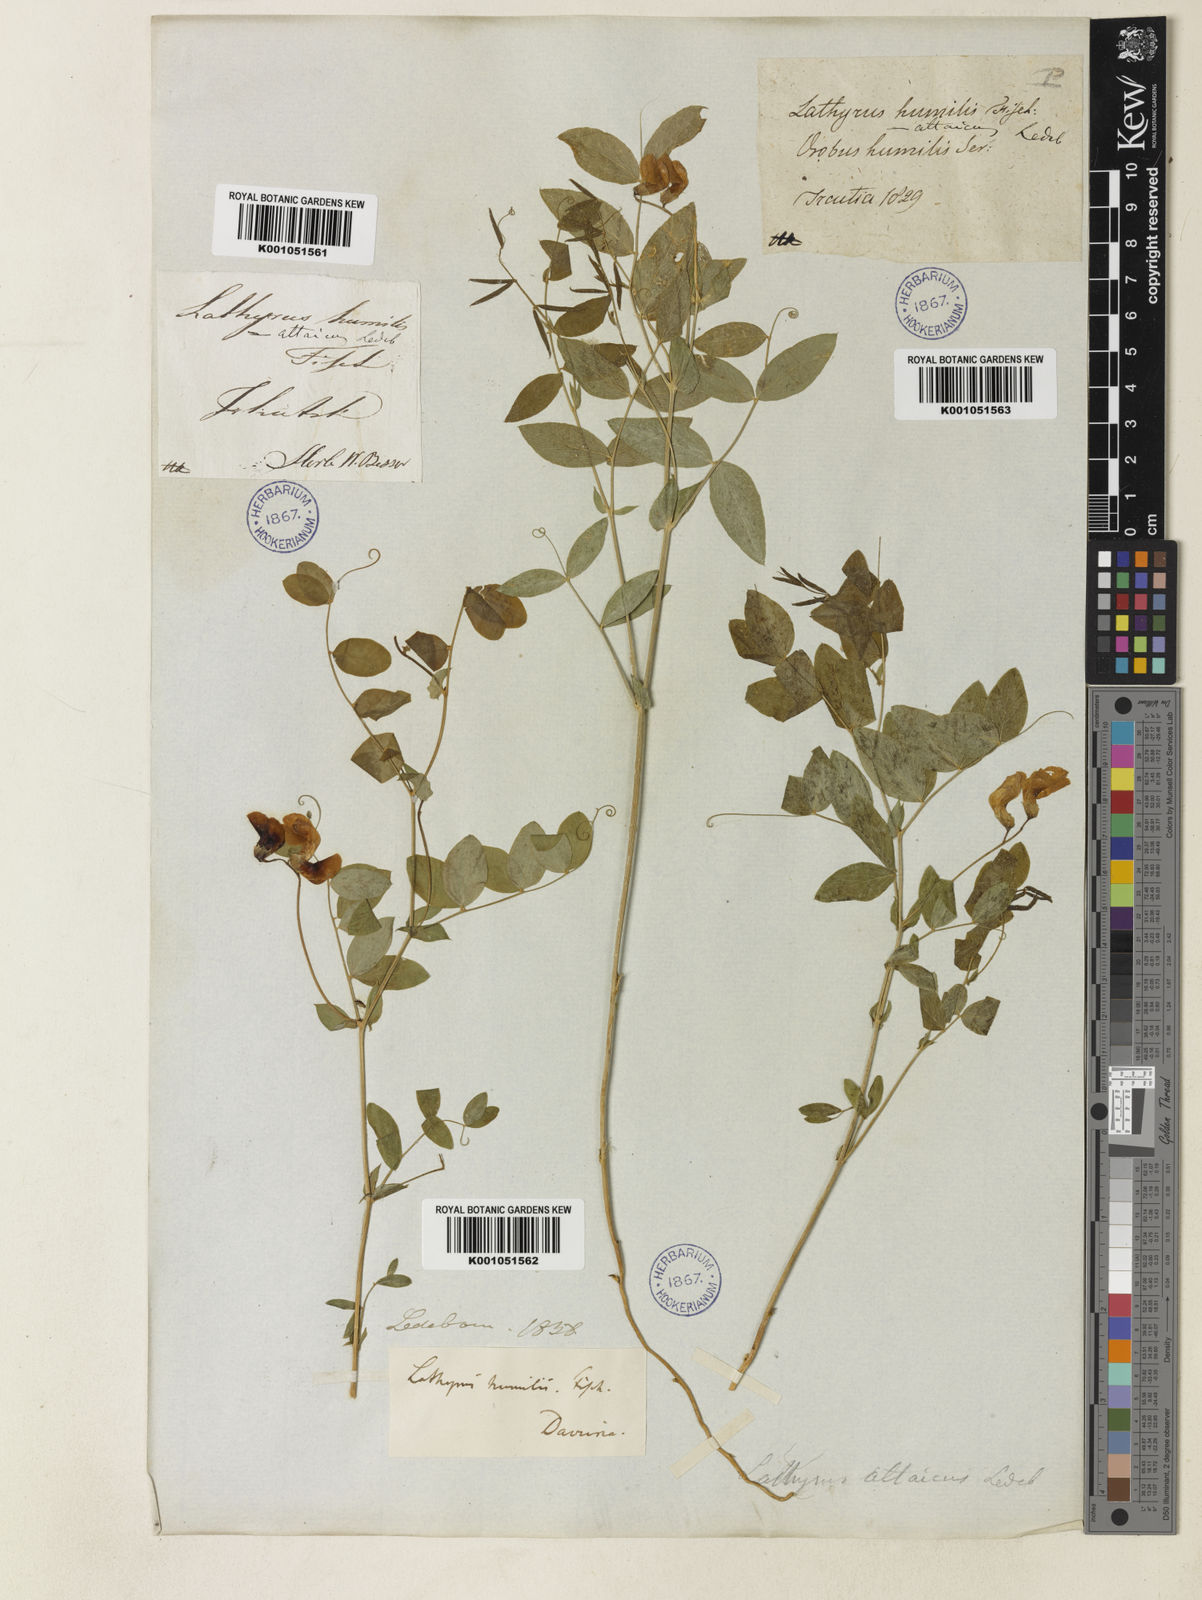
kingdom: Plantae
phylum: Tracheophyta
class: Magnoliopsida
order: Fabales
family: Fabaceae
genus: Lathyrus
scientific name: Lathyrus humilis
